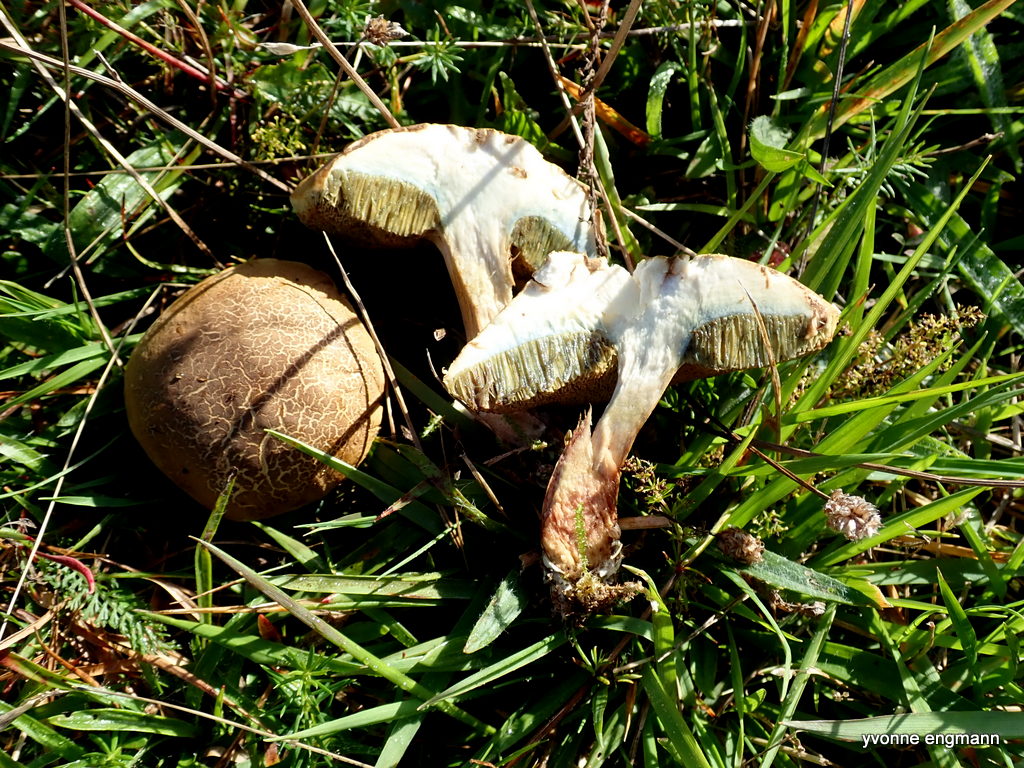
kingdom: Fungi
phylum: Basidiomycota
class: Agaricomycetes
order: Boletales
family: Boletaceae
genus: Xerocomellus
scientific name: Xerocomellus chrysenteron
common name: rødsprukken rørhat
